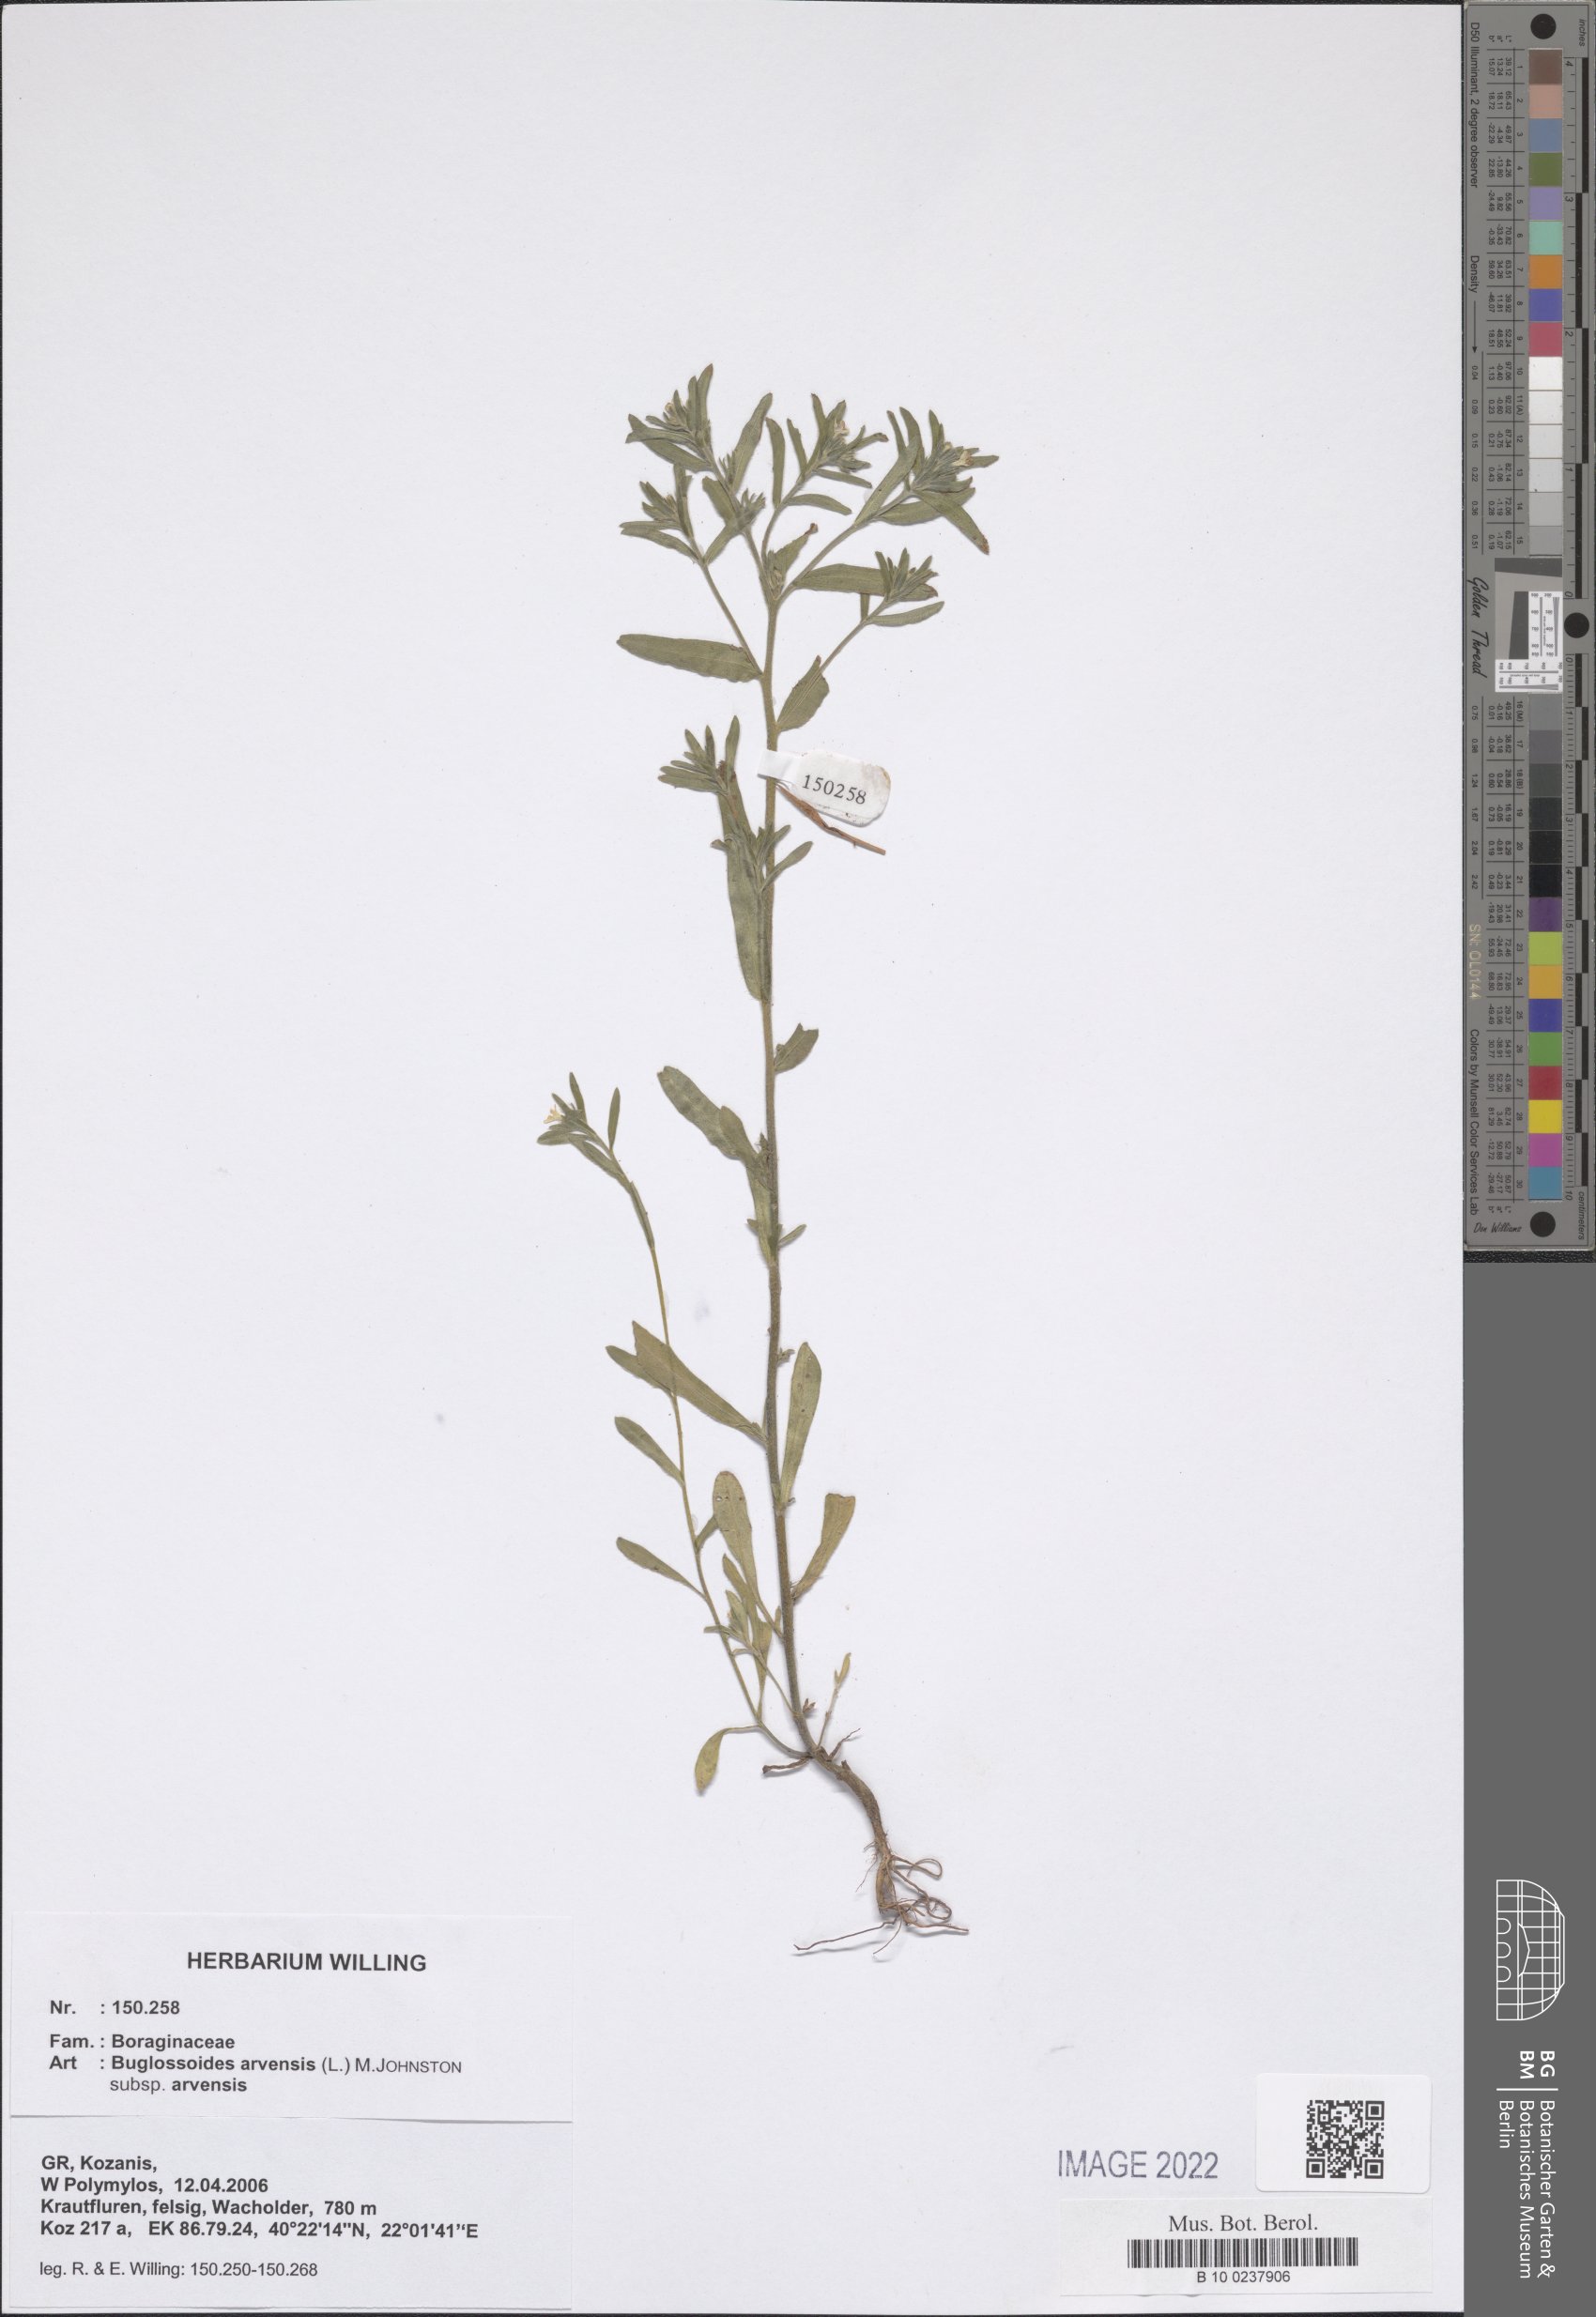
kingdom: Plantae
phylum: Tracheophyta
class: Magnoliopsida
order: Boraginales
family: Boraginaceae
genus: Buglossoides
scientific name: Buglossoides arvensis
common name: Corn gromwell
